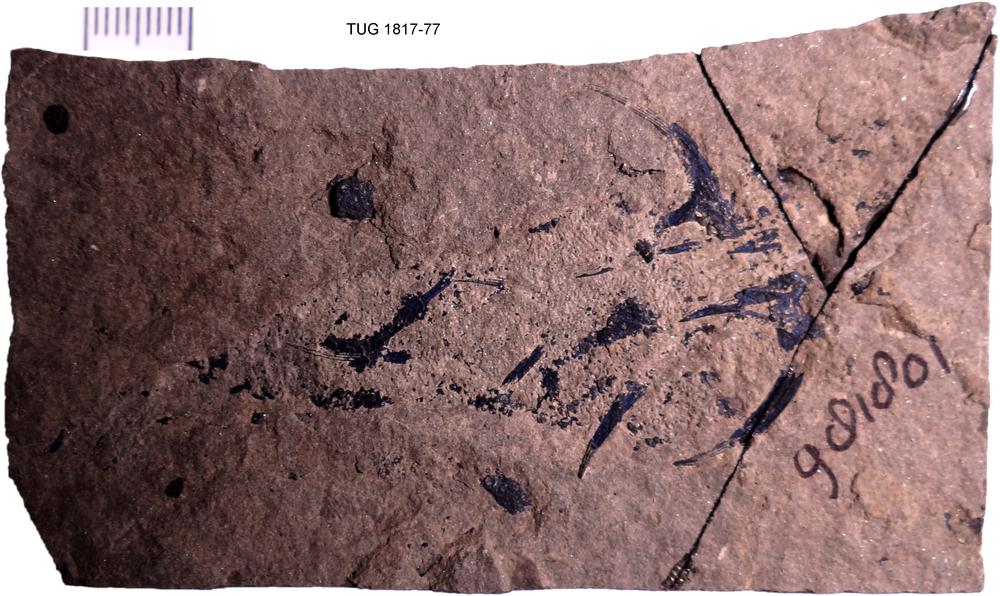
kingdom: Animalia
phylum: Chordata
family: Diplacanthidae
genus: Diplacanthus
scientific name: Diplacanthus crassisimus
